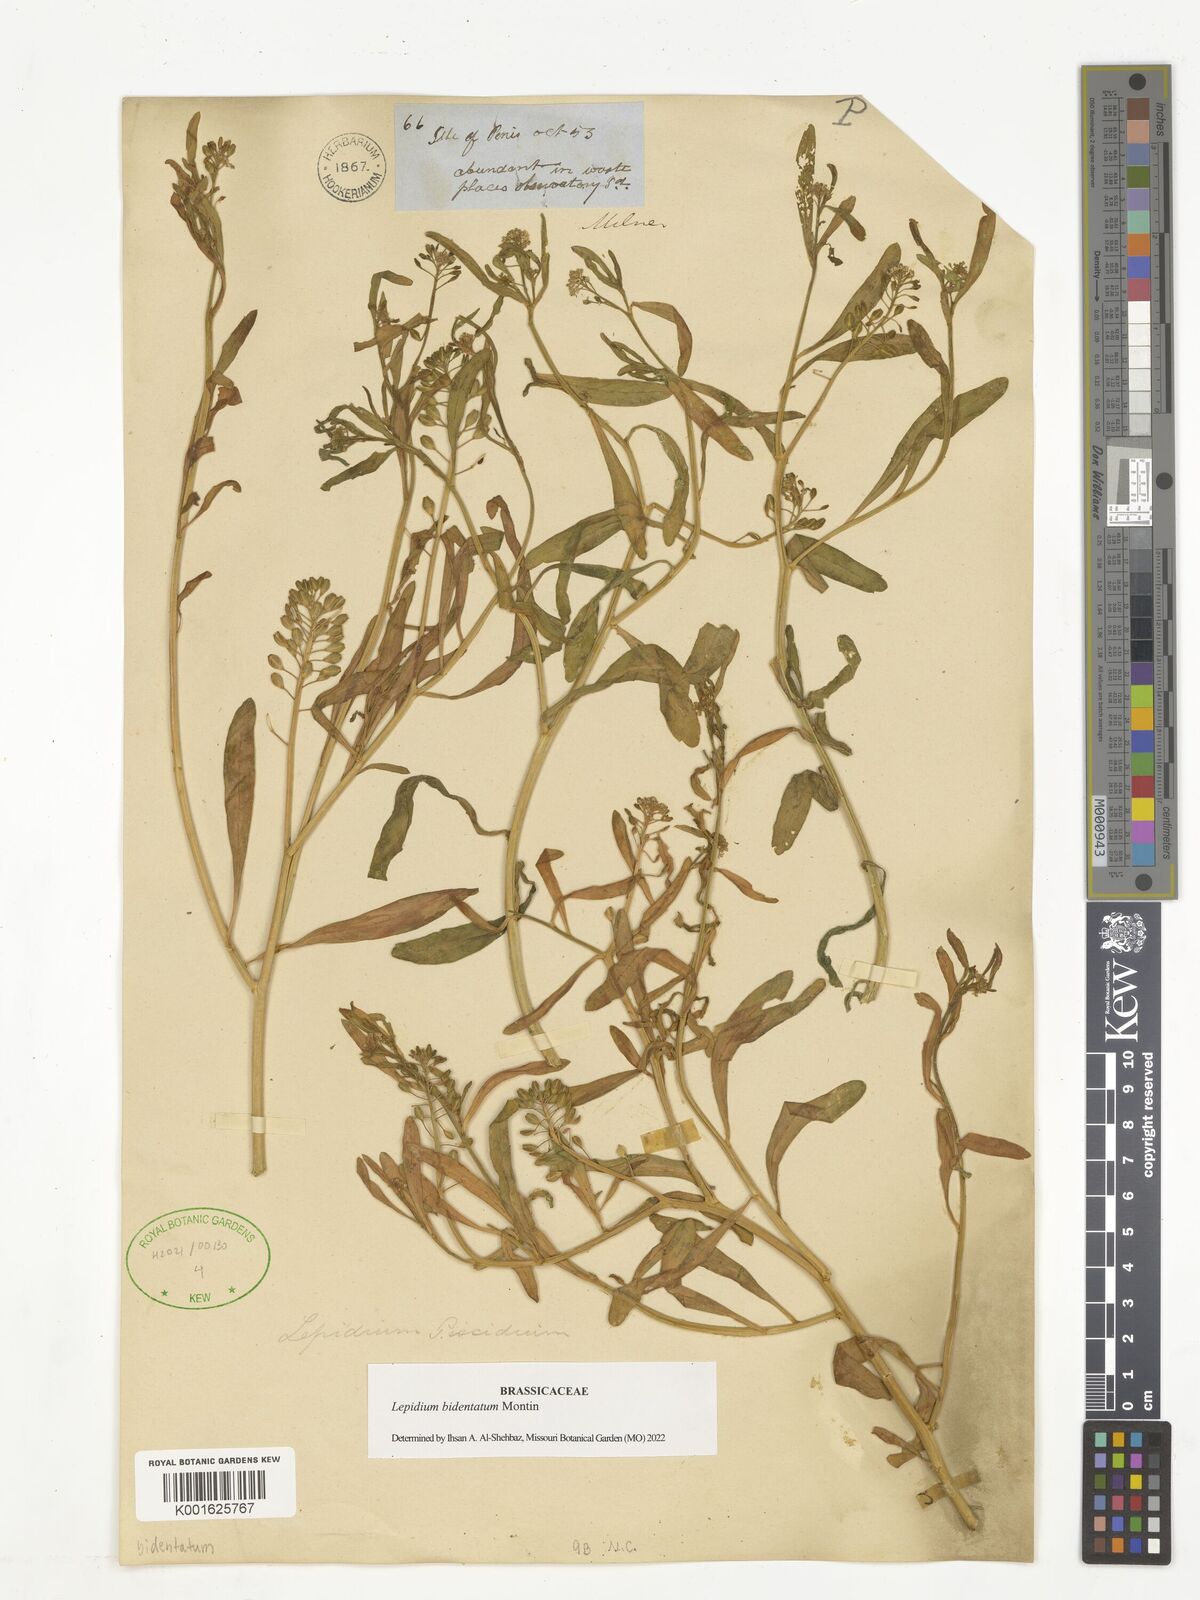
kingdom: Plantae
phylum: Tracheophyta
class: Magnoliopsida
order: Brassicales
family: Brassicaceae
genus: Lepidium
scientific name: Lepidium bidentatum
